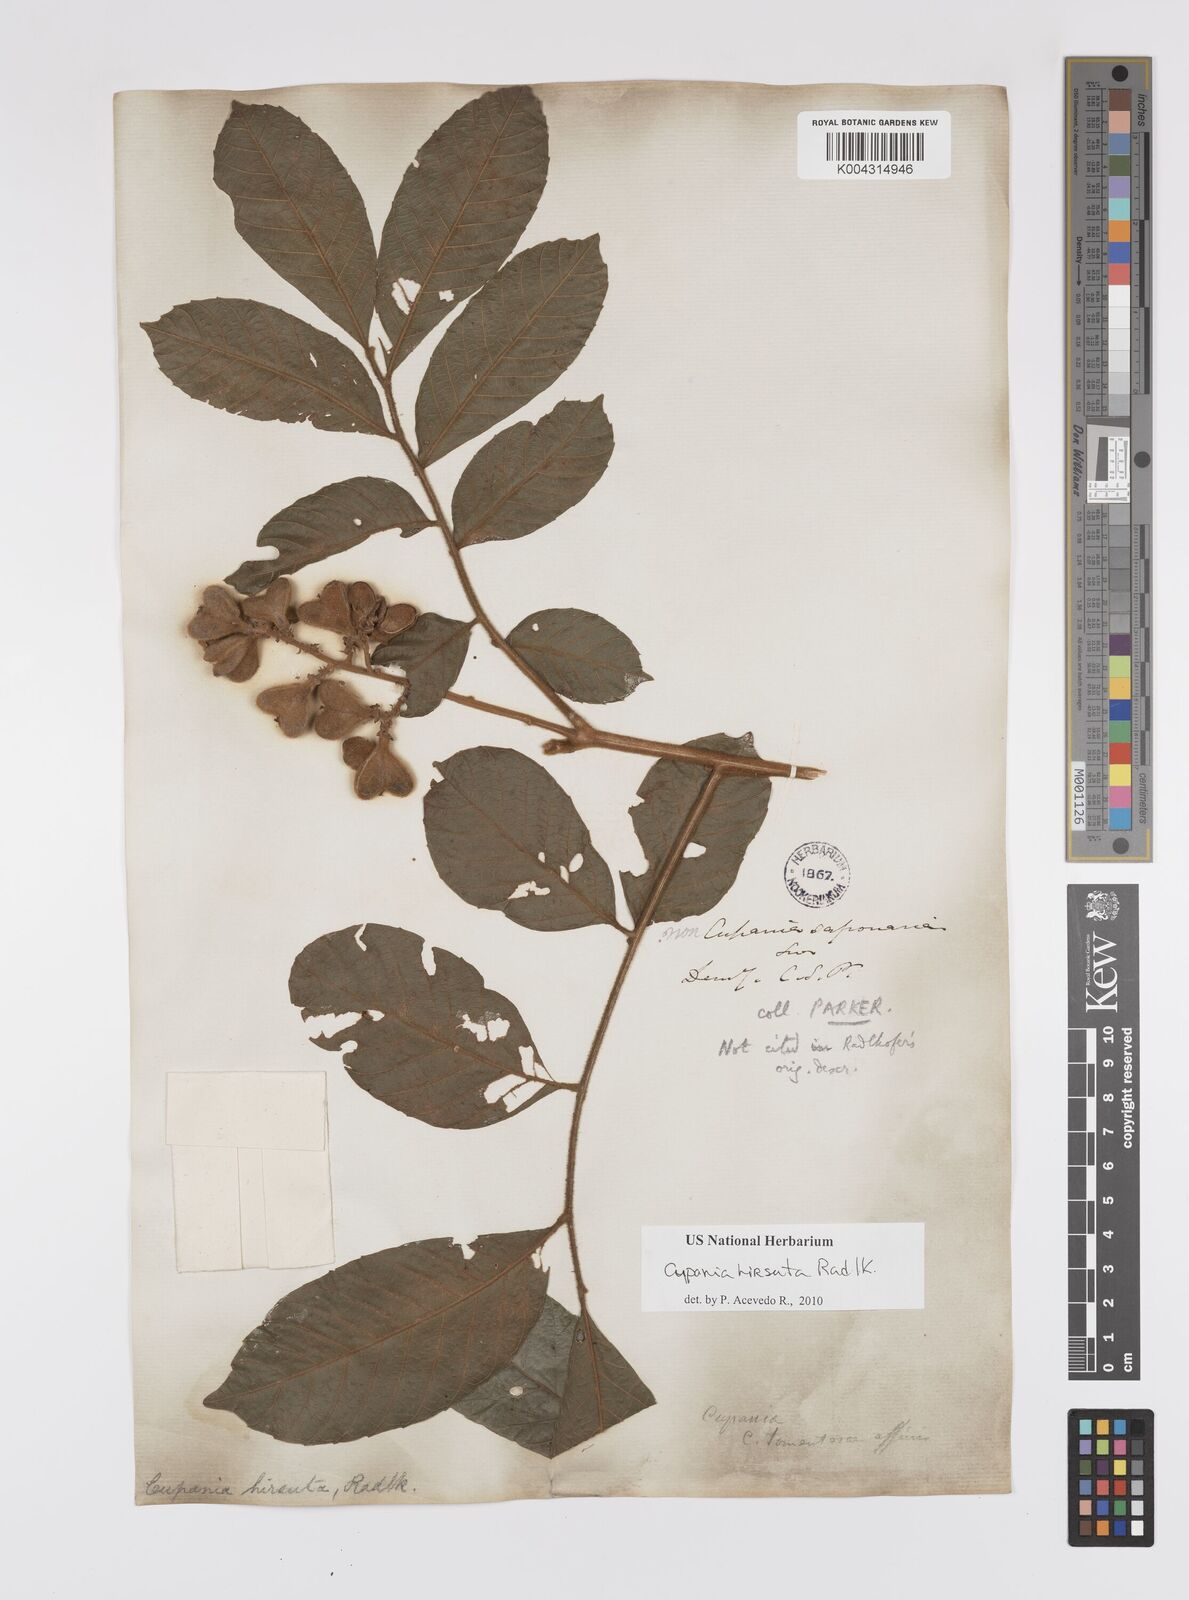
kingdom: Plantae
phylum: Tracheophyta
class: Magnoliopsida
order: Sapindales
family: Sapindaceae
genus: Cupania
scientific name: Cupania hirsuta
